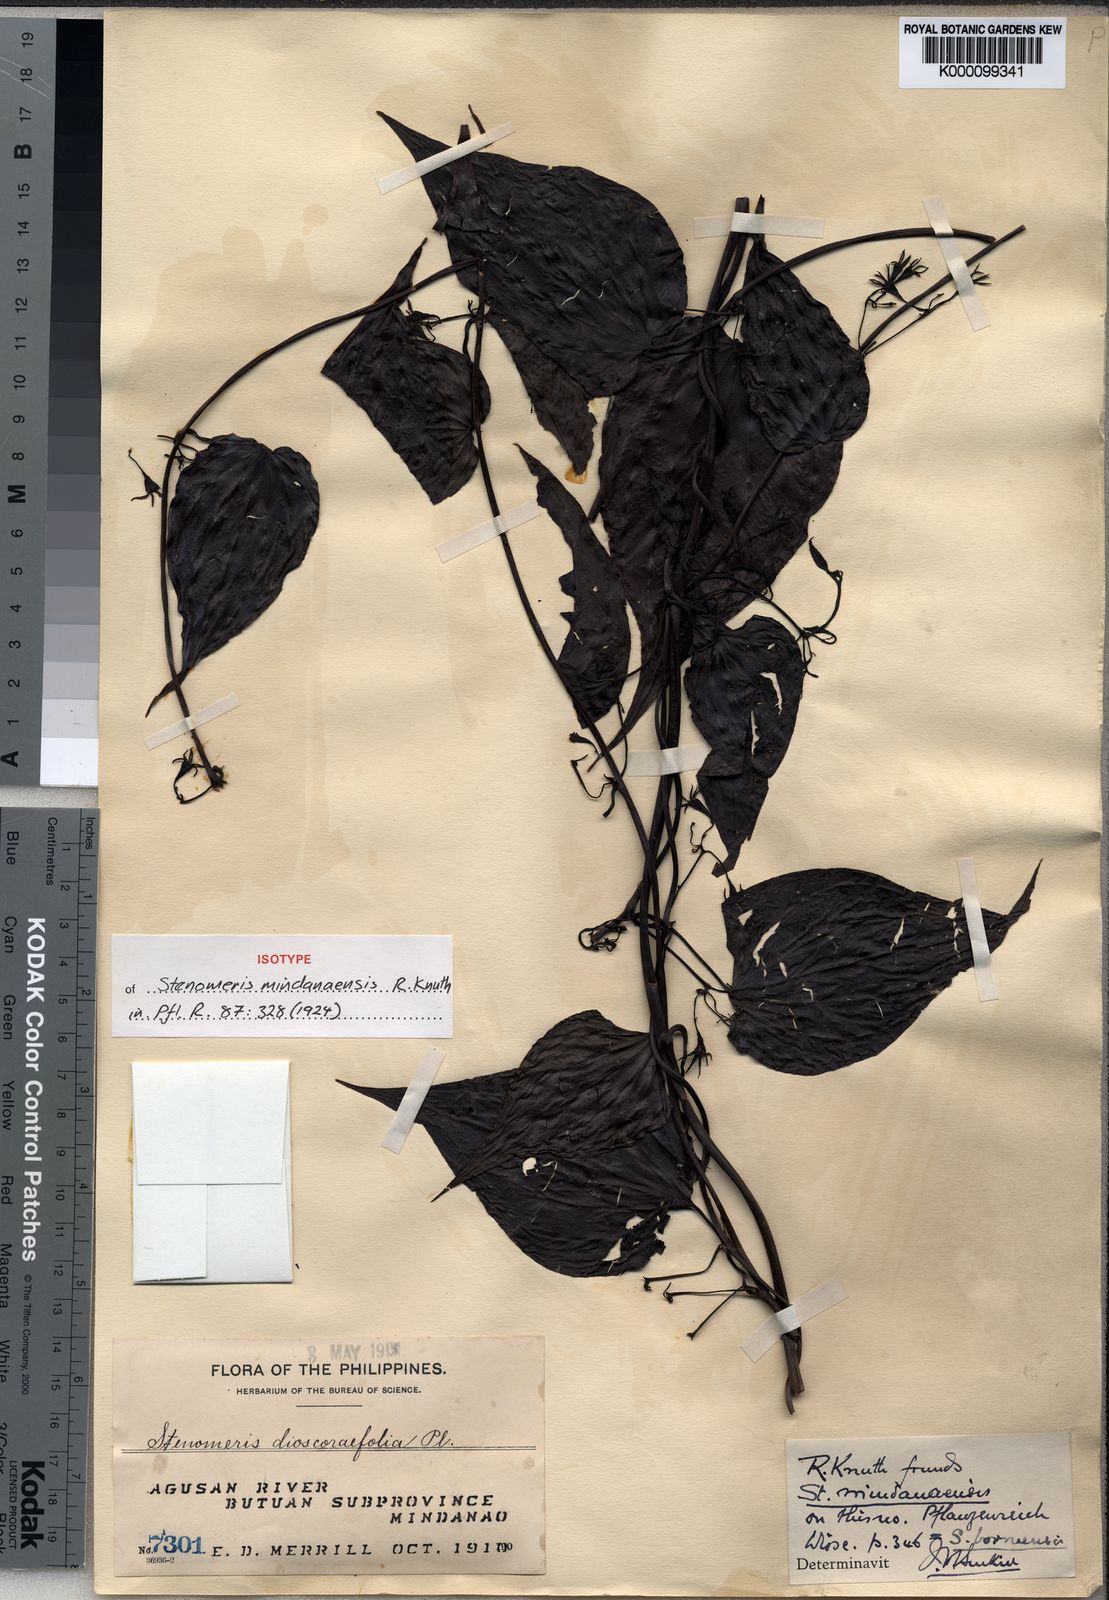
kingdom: Plantae
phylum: Tracheophyta
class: Liliopsida
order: Dioscoreales
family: Dioscoreaceae
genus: Stenomeris
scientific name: Stenomeris borneensis
